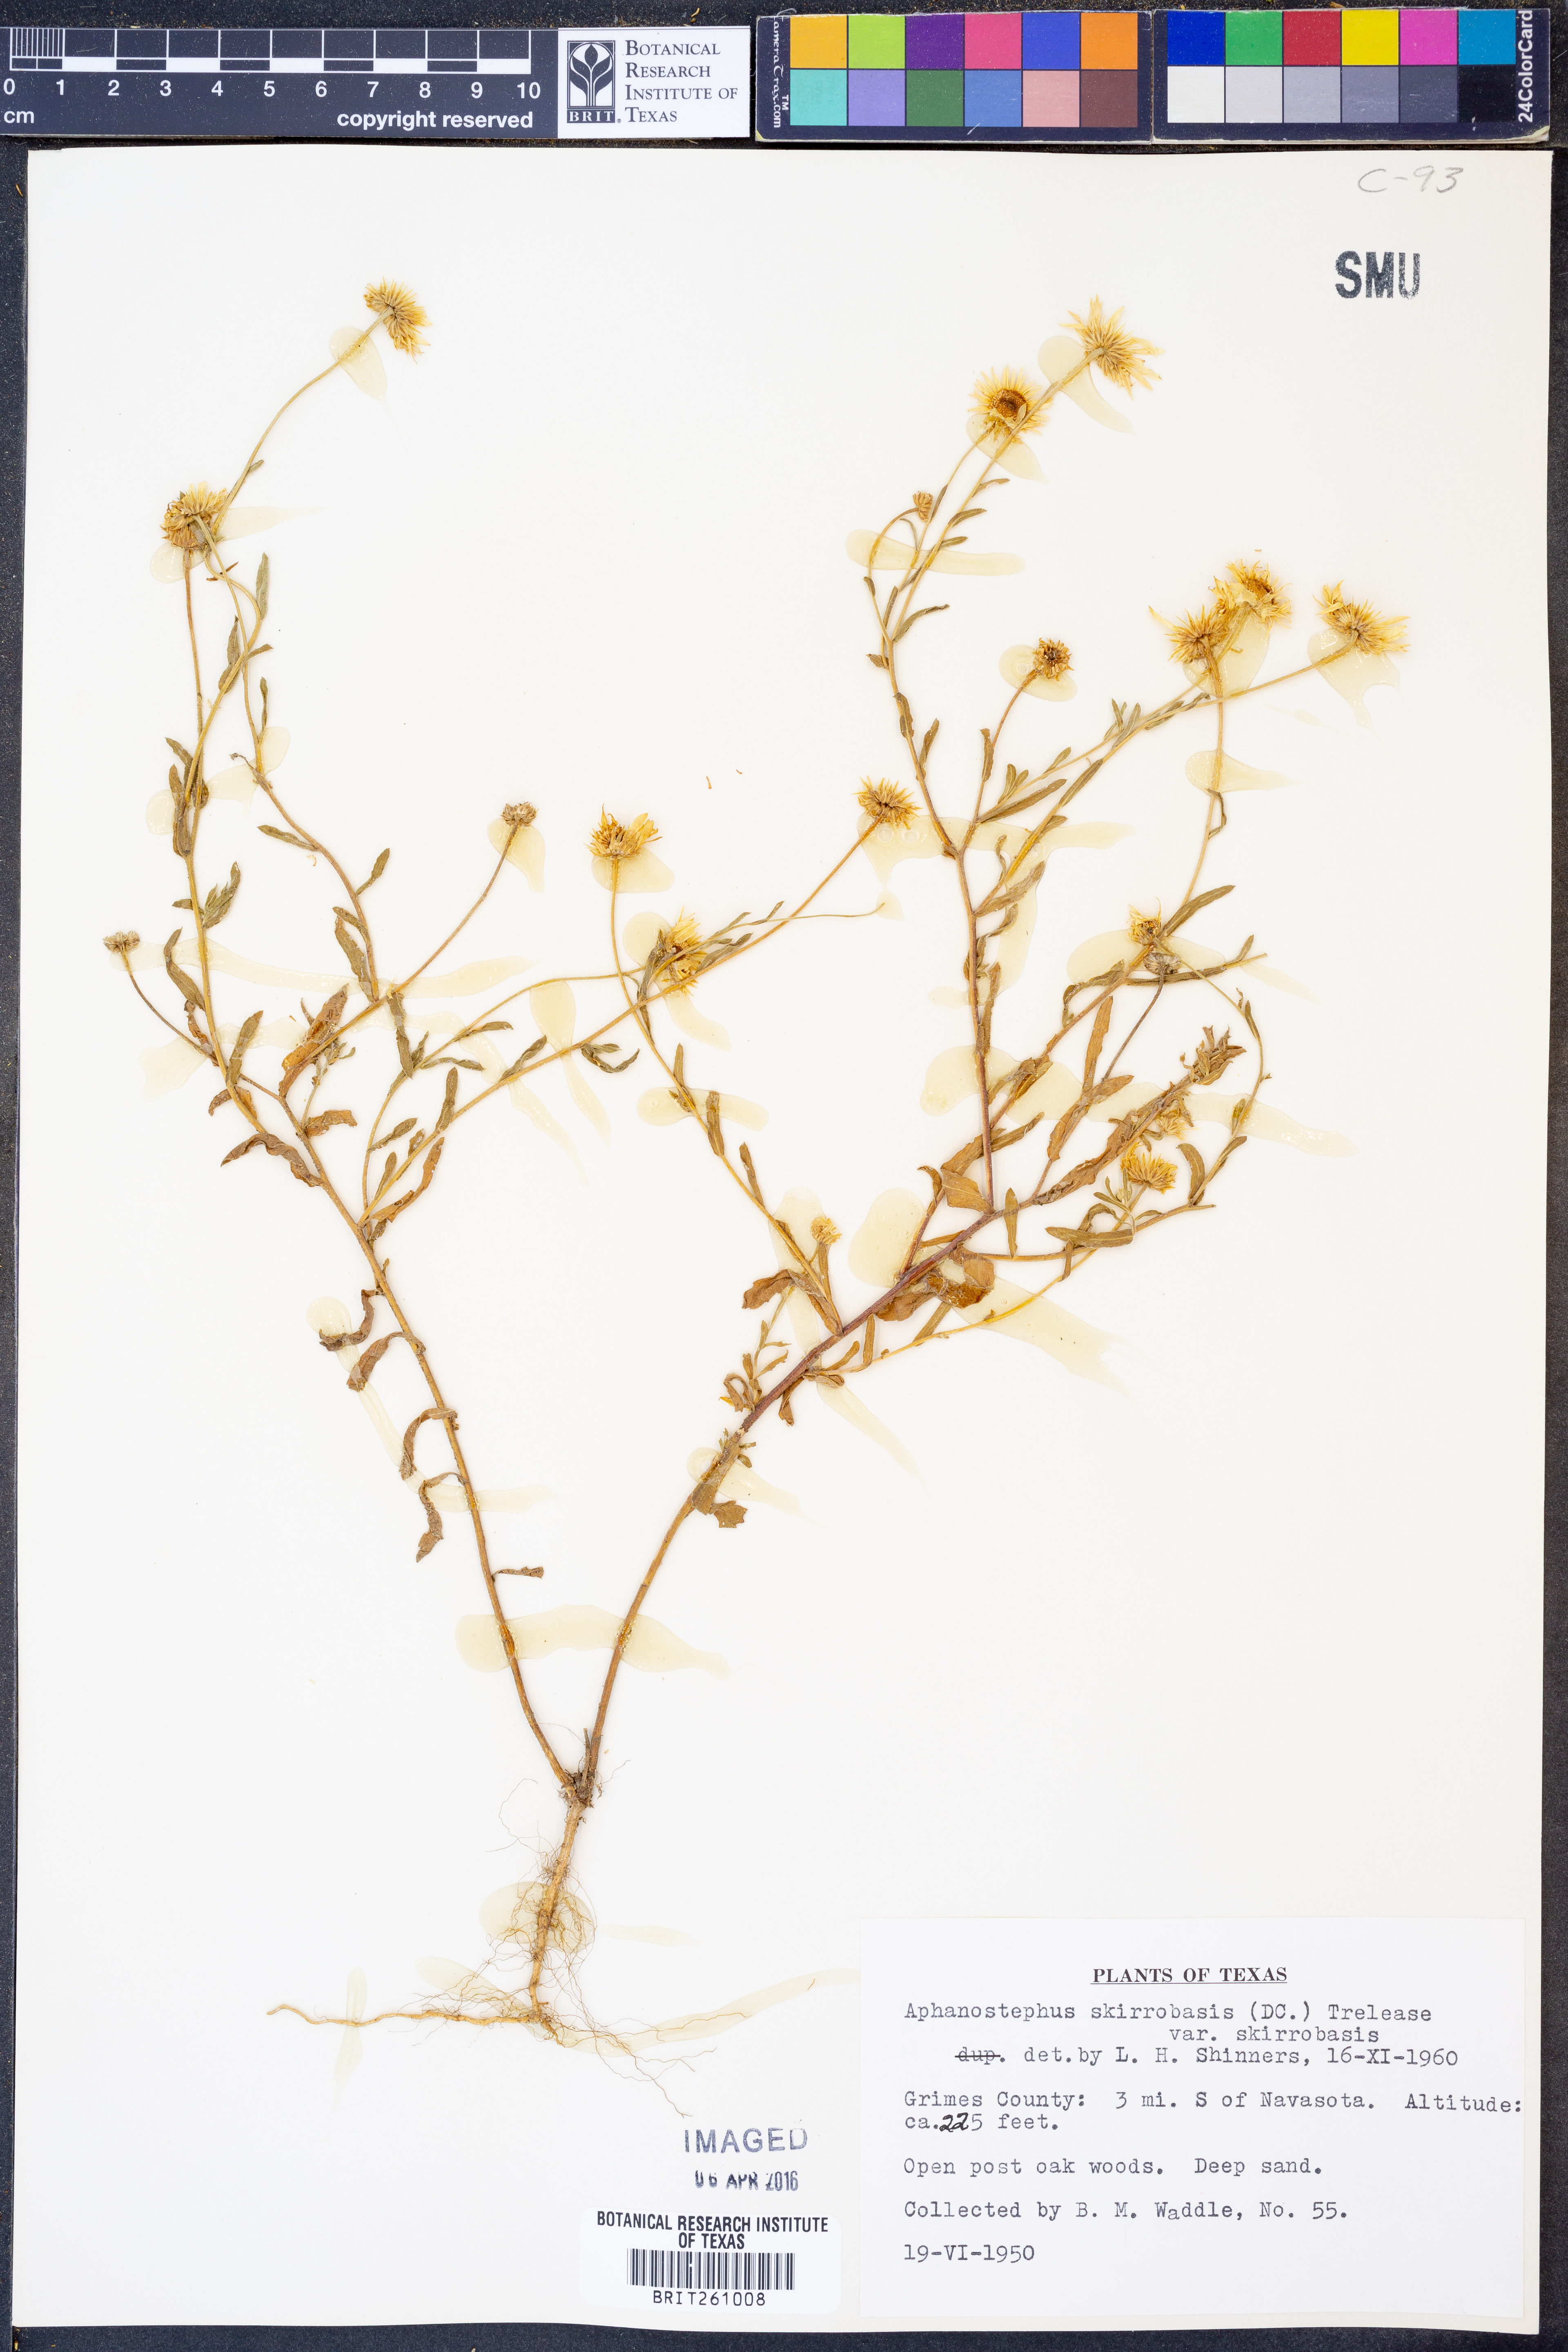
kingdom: Plantae
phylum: Tracheophyta
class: Magnoliopsida
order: Asterales
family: Asteraceae
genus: Aphanostephus
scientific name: Aphanostephus skirrhobasis
